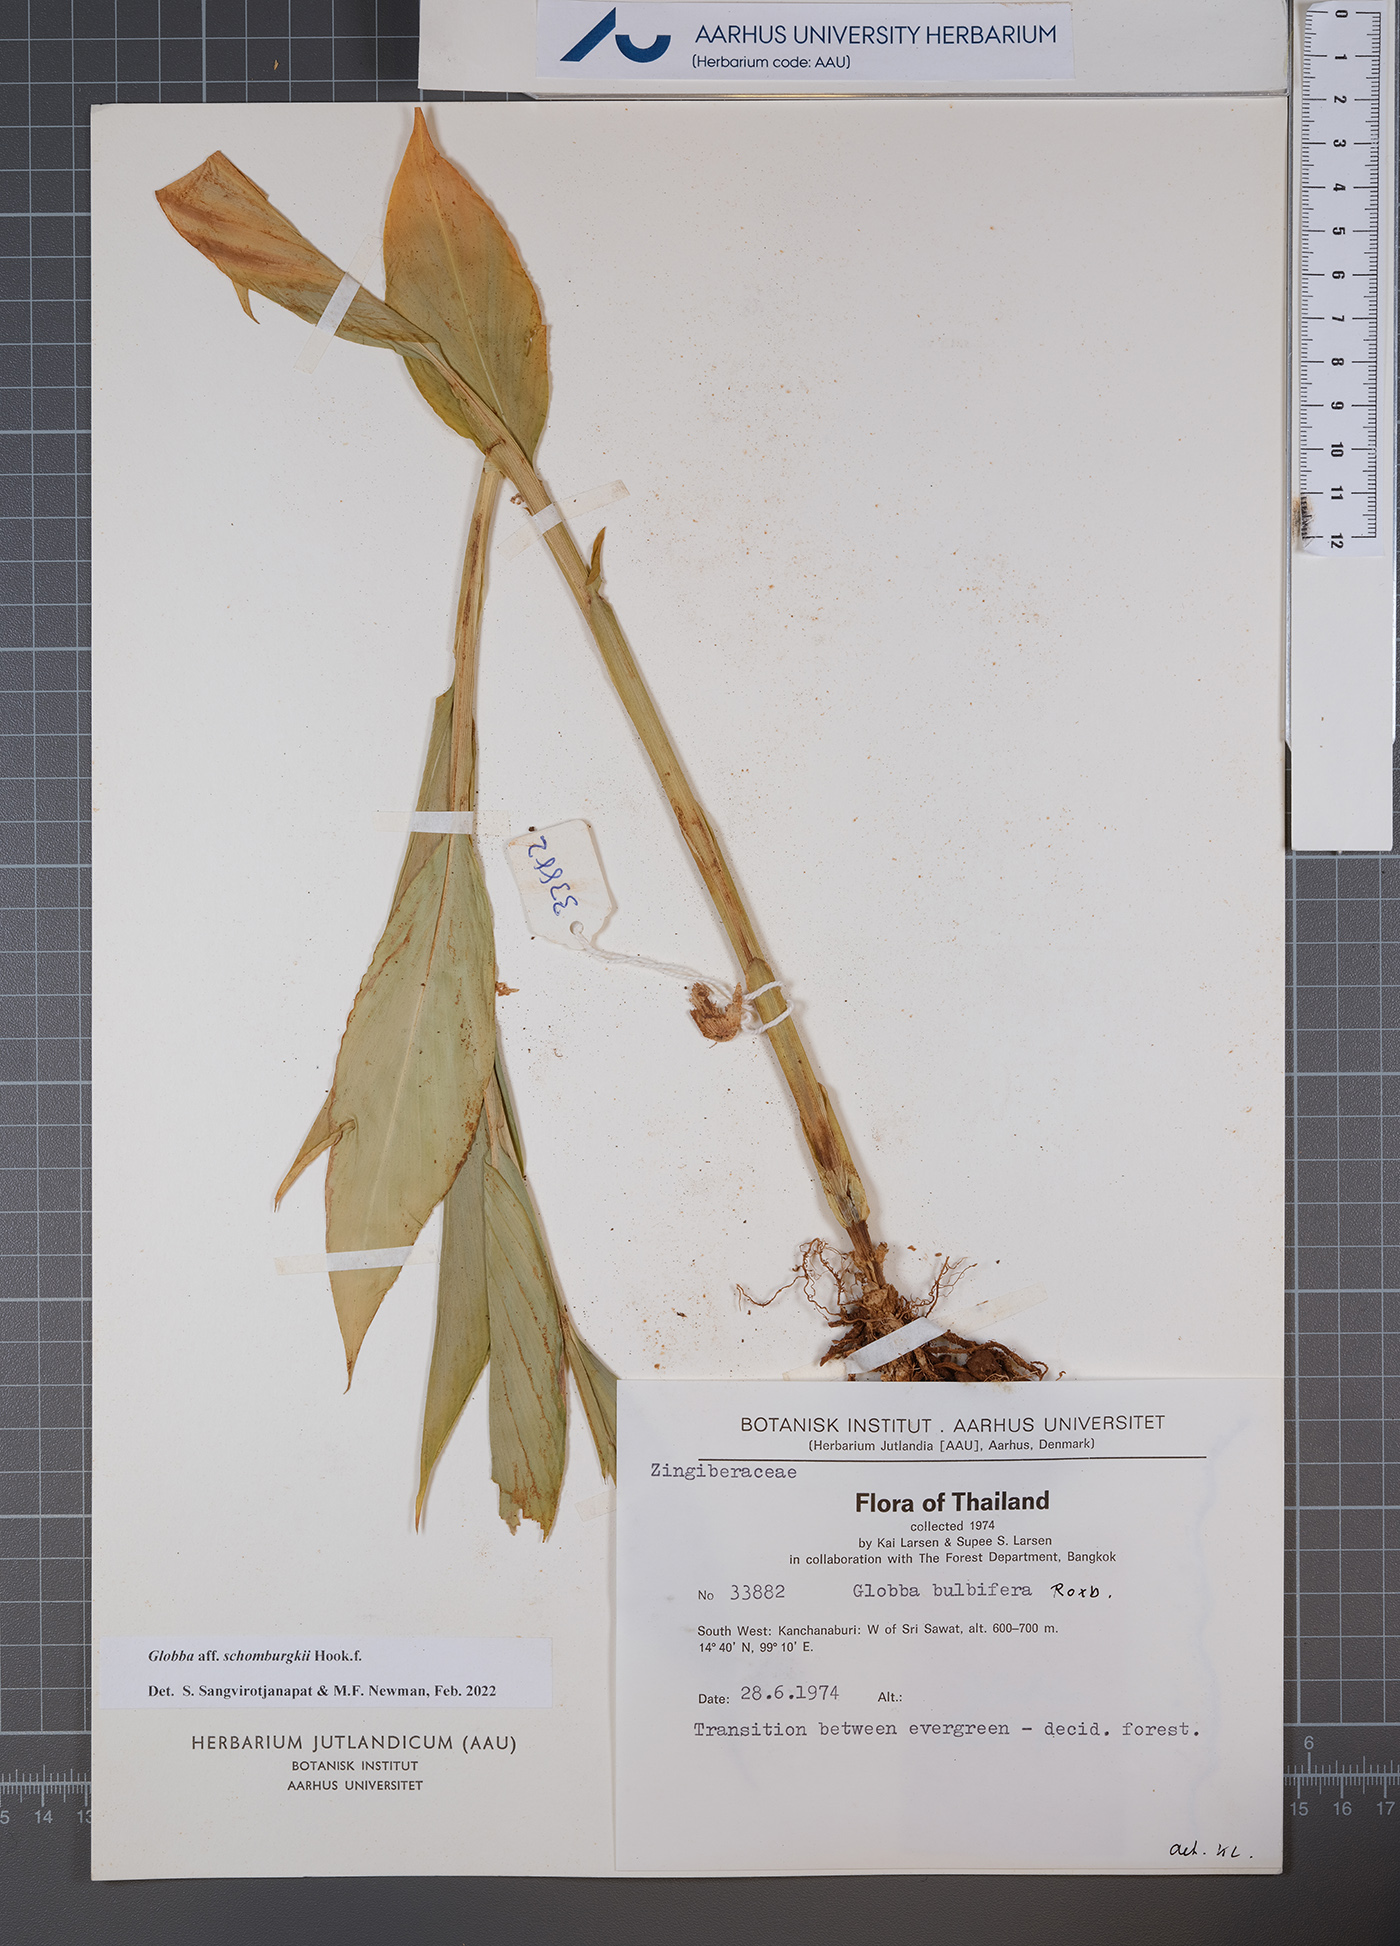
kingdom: Plantae
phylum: Tracheophyta
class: Liliopsida
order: Zingiberales
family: Zingiberaceae
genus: Globba
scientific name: Globba schomburgkii
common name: Dancing girl ginger
